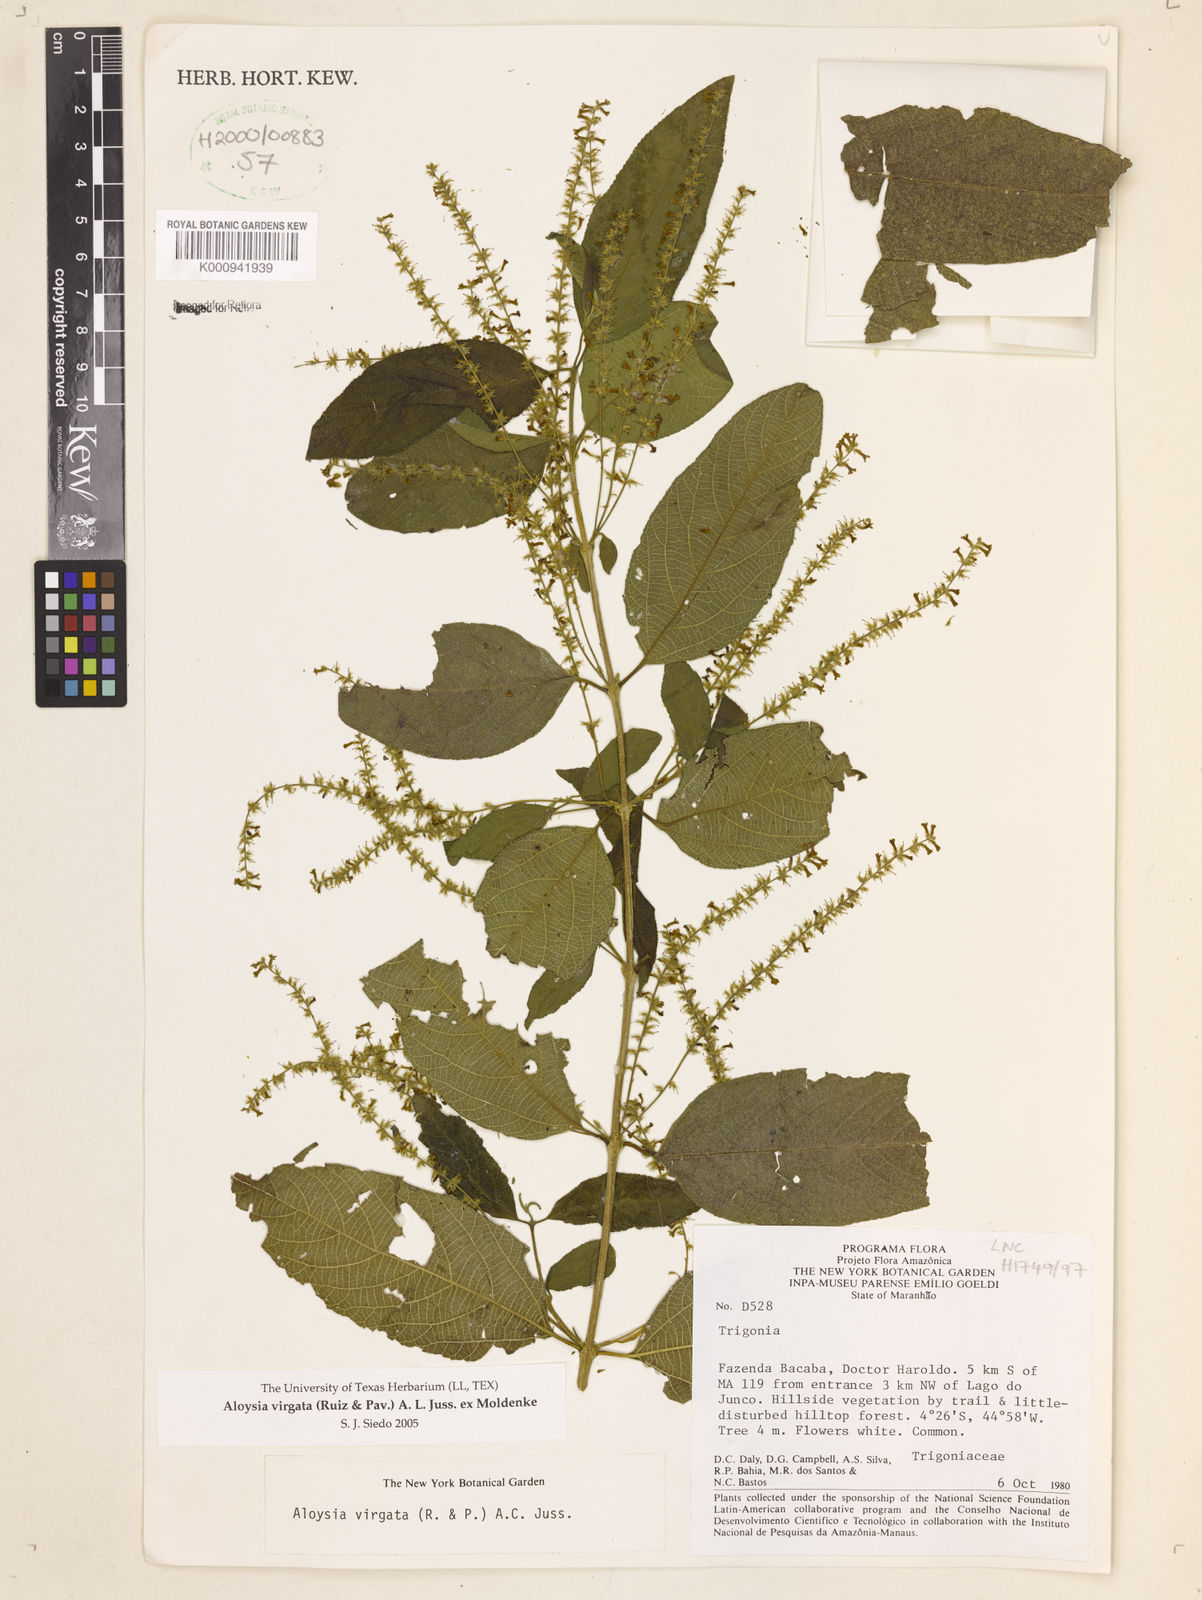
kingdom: Plantae
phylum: Tracheophyta
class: Magnoliopsida
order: Lamiales
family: Verbenaceae
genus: Aloysia
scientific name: Aloysia
